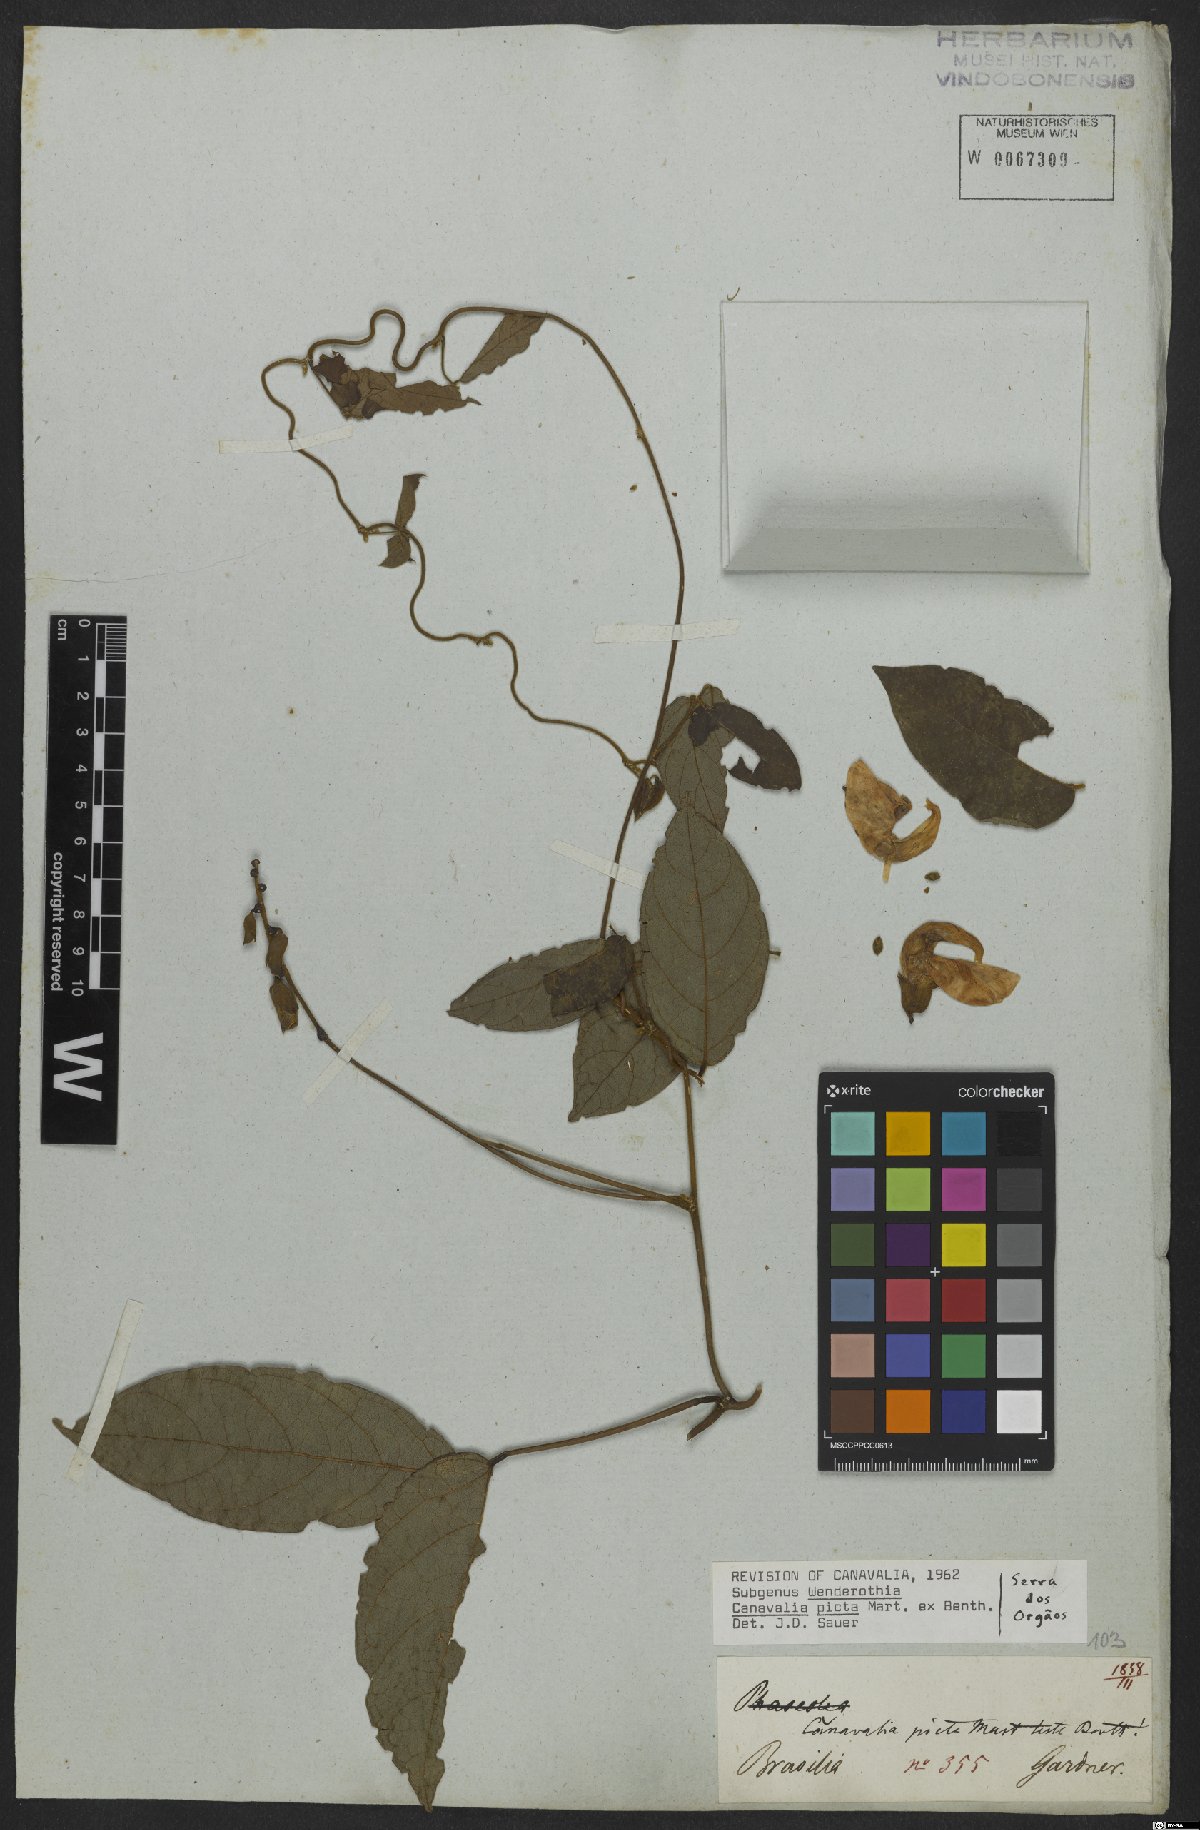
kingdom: Plantae
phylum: Tracheophyta
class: Magnoliopsida
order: Fabales
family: Fabaceae
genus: Canavalia
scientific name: Canavalia picta
